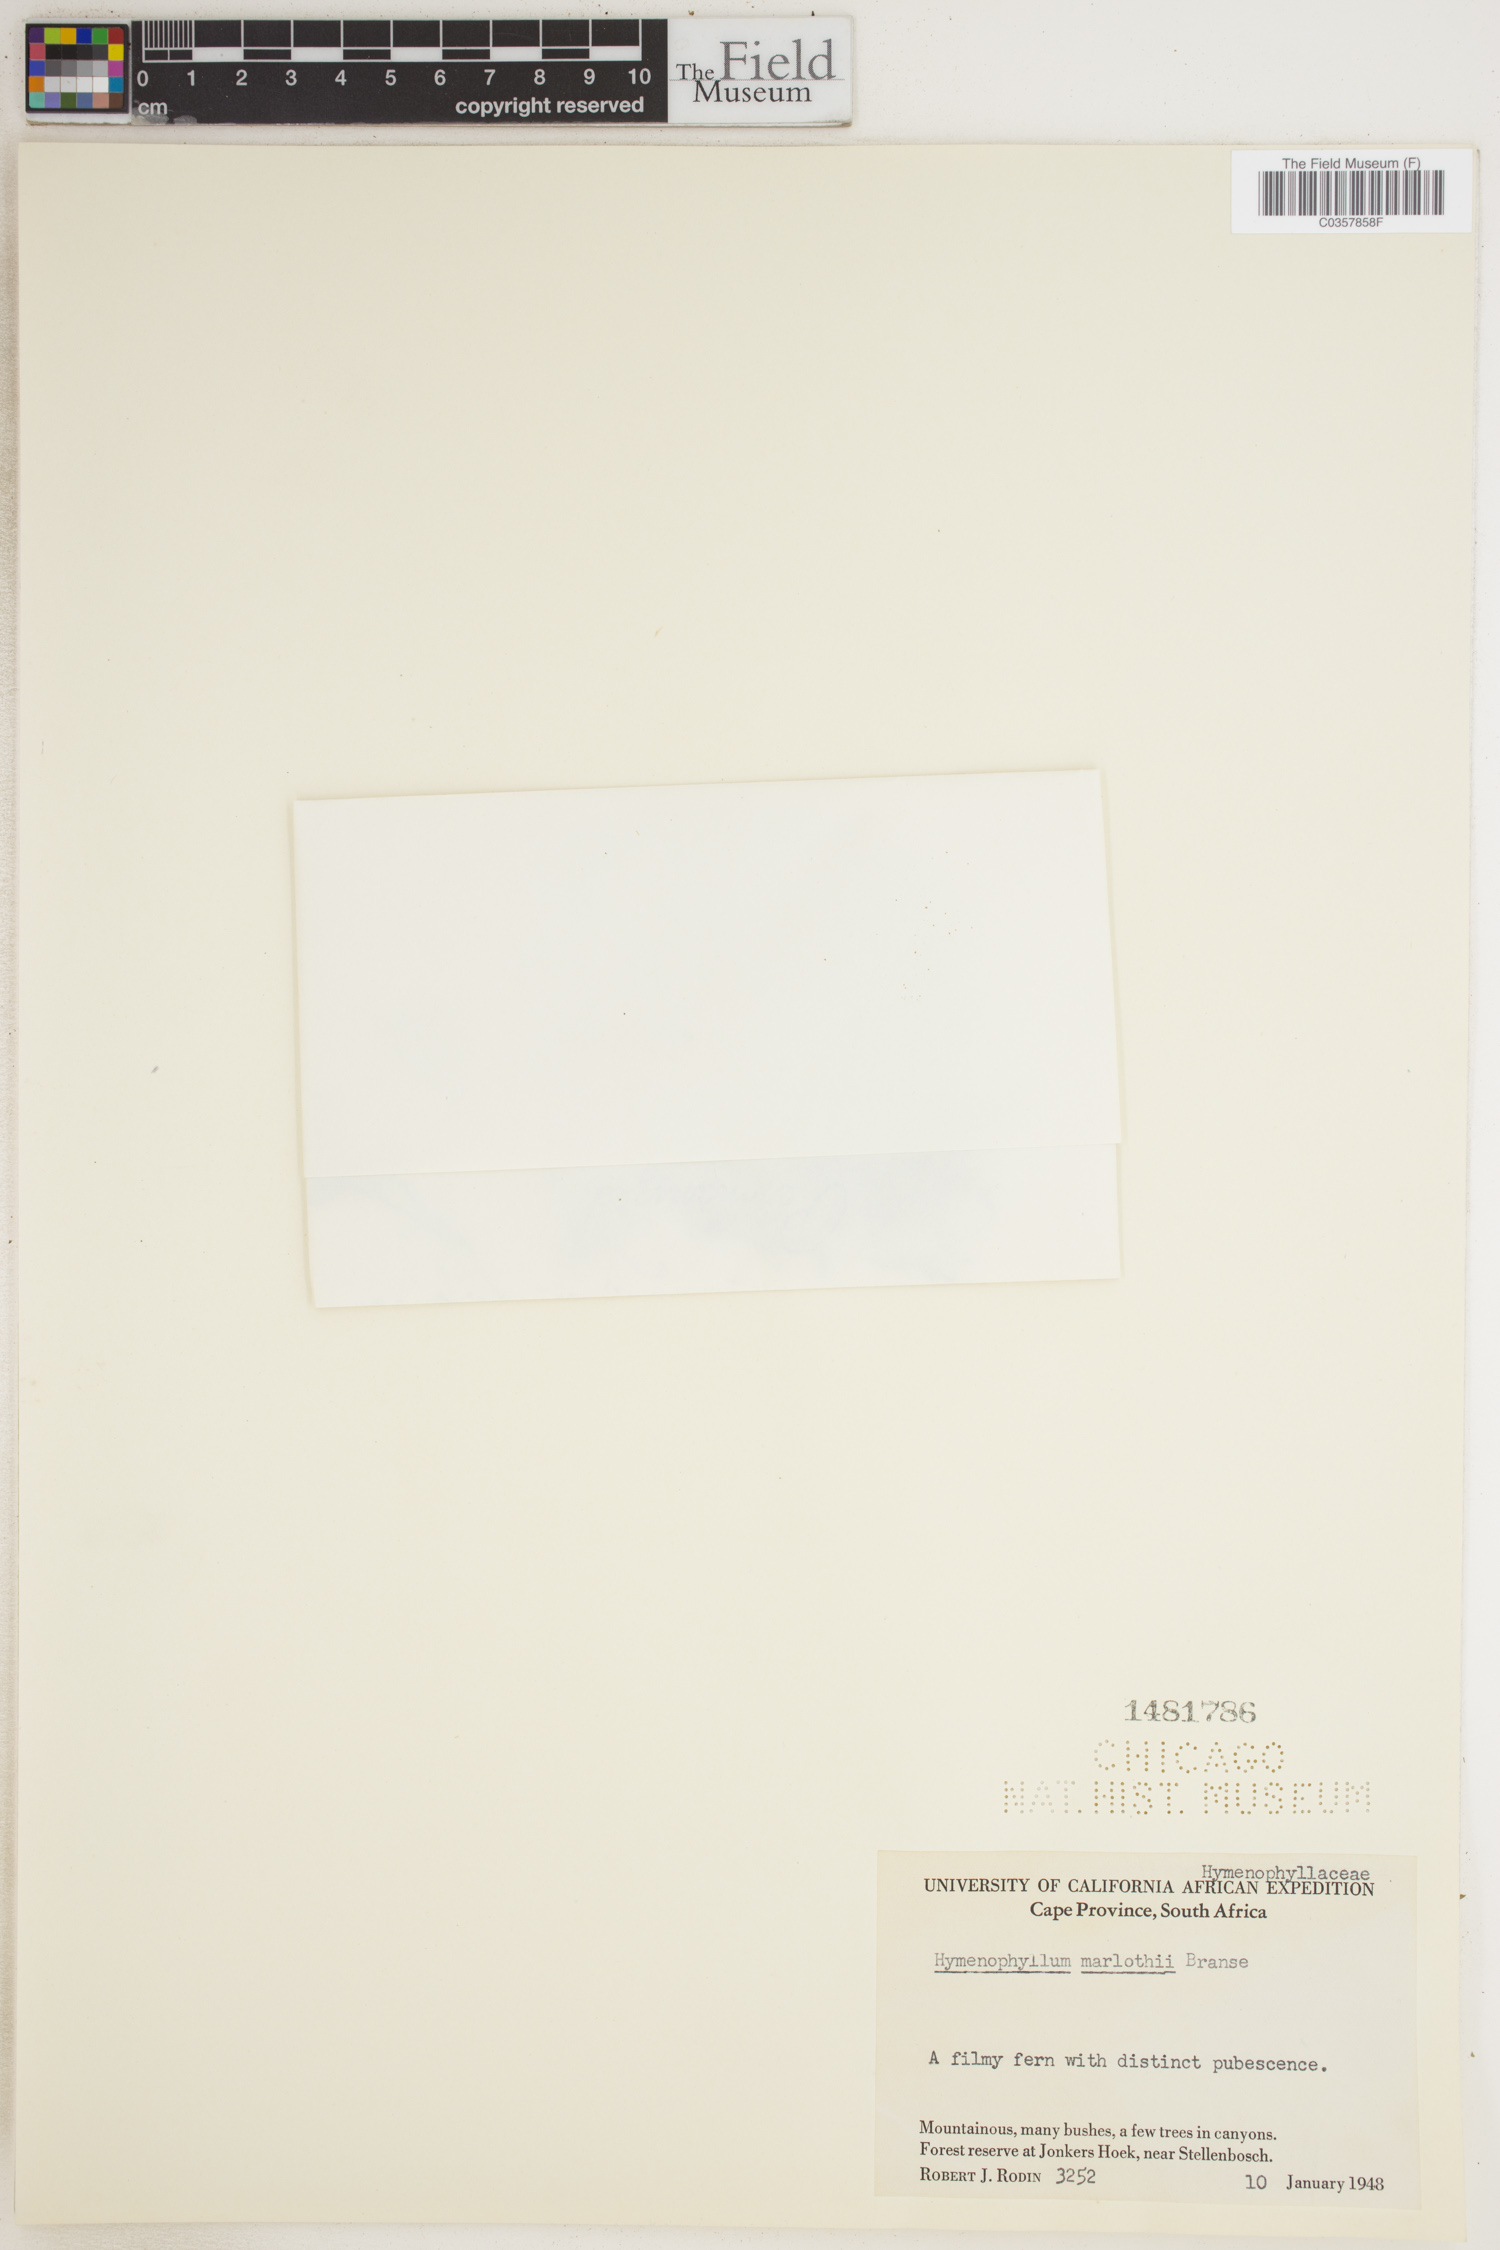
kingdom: Plantae
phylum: Tracheophyta
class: Polypodiopsida
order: Hymenophyllales
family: Hymenophyllaceae
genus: Hymenophyllum
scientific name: Hymenophyllum aeruginosum
